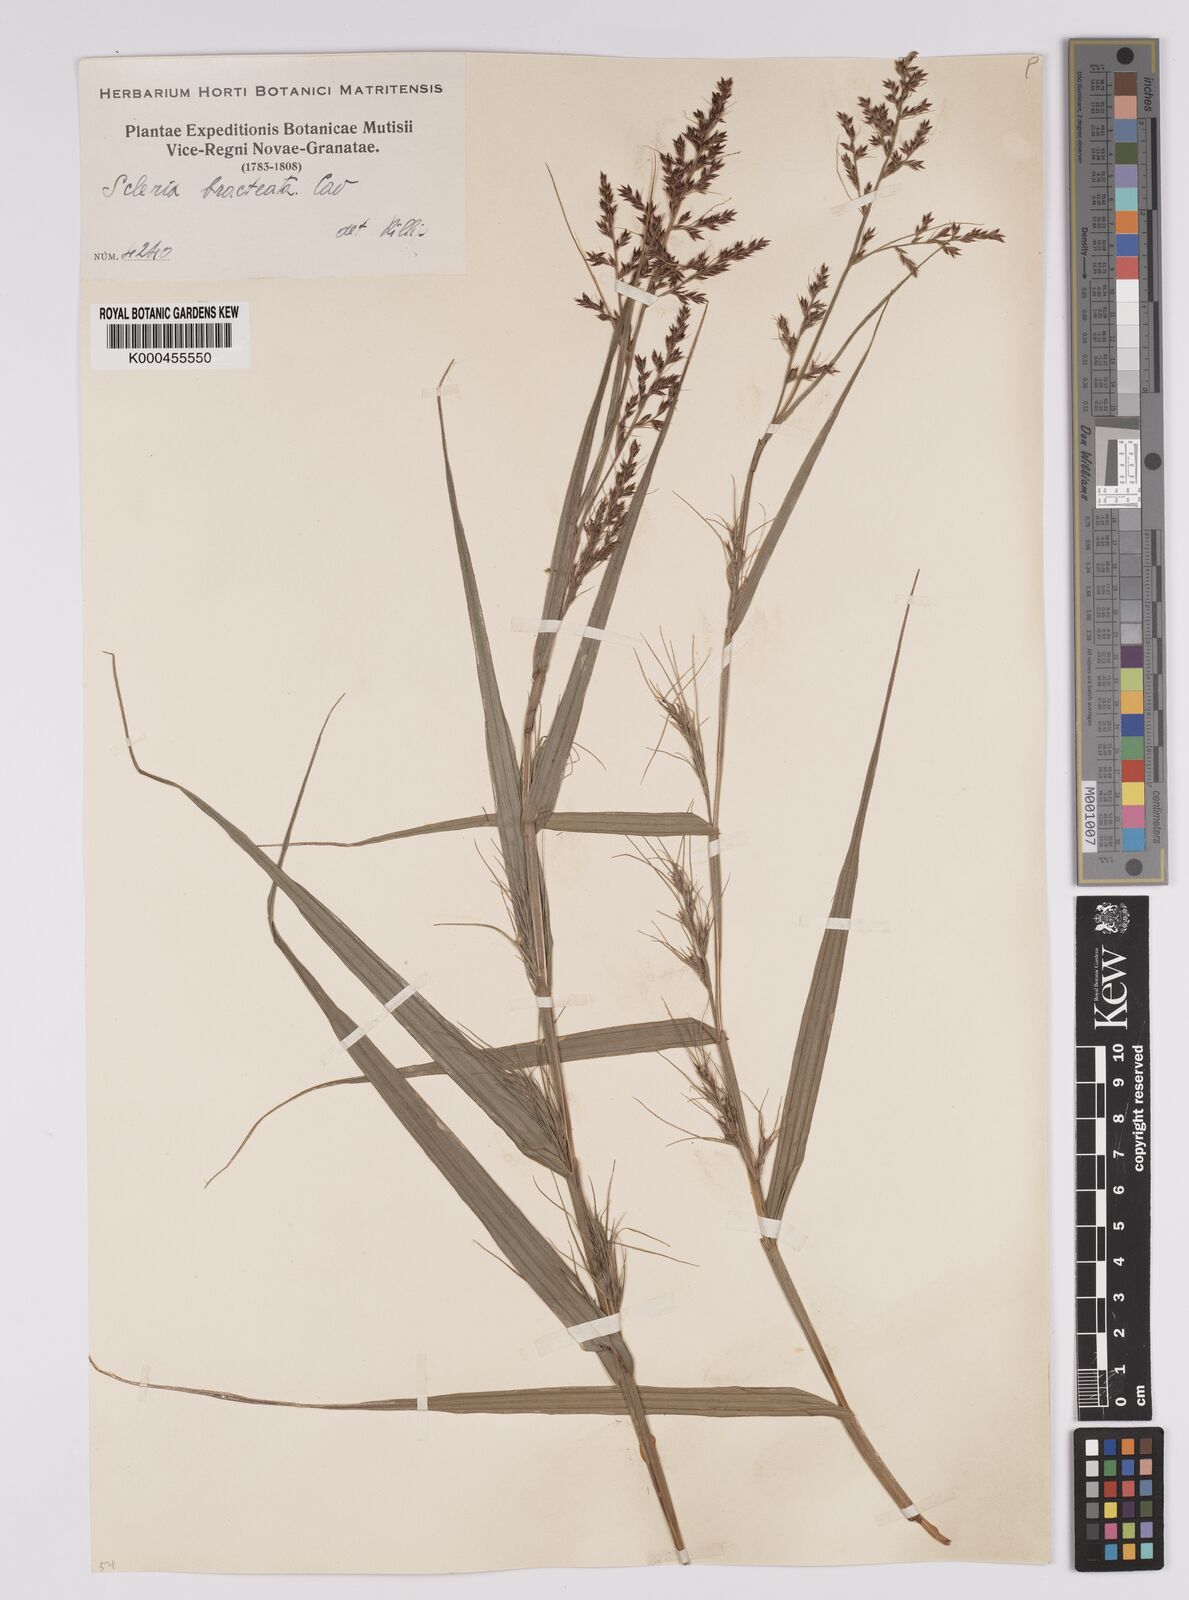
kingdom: Plantae
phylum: Tracheophyta
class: Liliopsida
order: Poales
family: Cyperaceae
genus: Scleria
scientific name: Scleria bracteata
